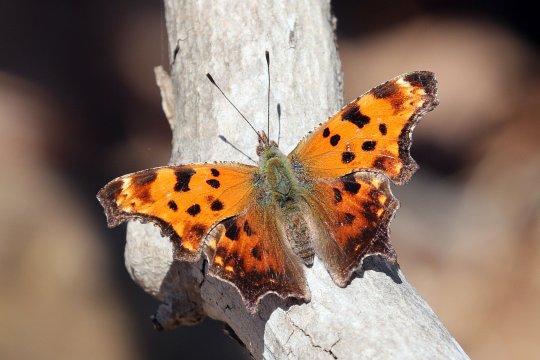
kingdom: Animalia
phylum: Arthropoda
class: Insecta
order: Lepidoptera
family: Nymphalidae
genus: Polygonia
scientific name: Polygonia comma
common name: Eastern Comma
